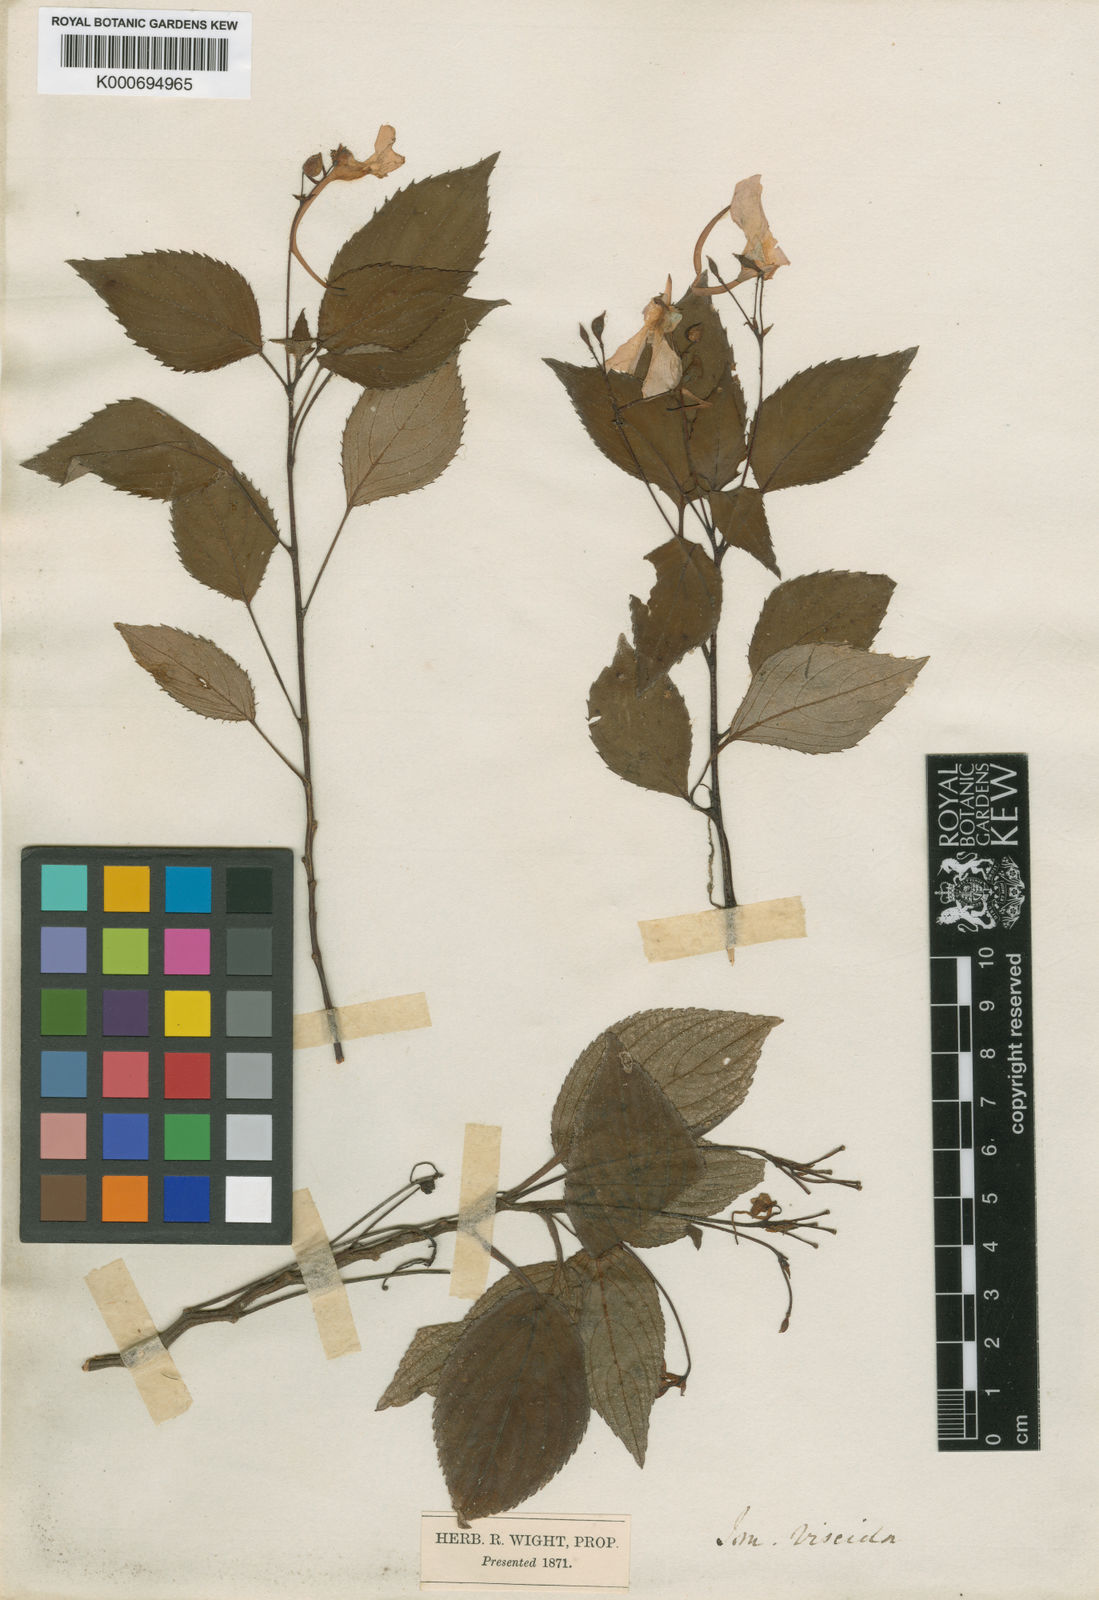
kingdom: Plantae
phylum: Tracheophyta
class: Magnoliopsida
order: Ericales
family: Balsaminaceae
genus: Impatiens
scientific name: Impatiens viscida
